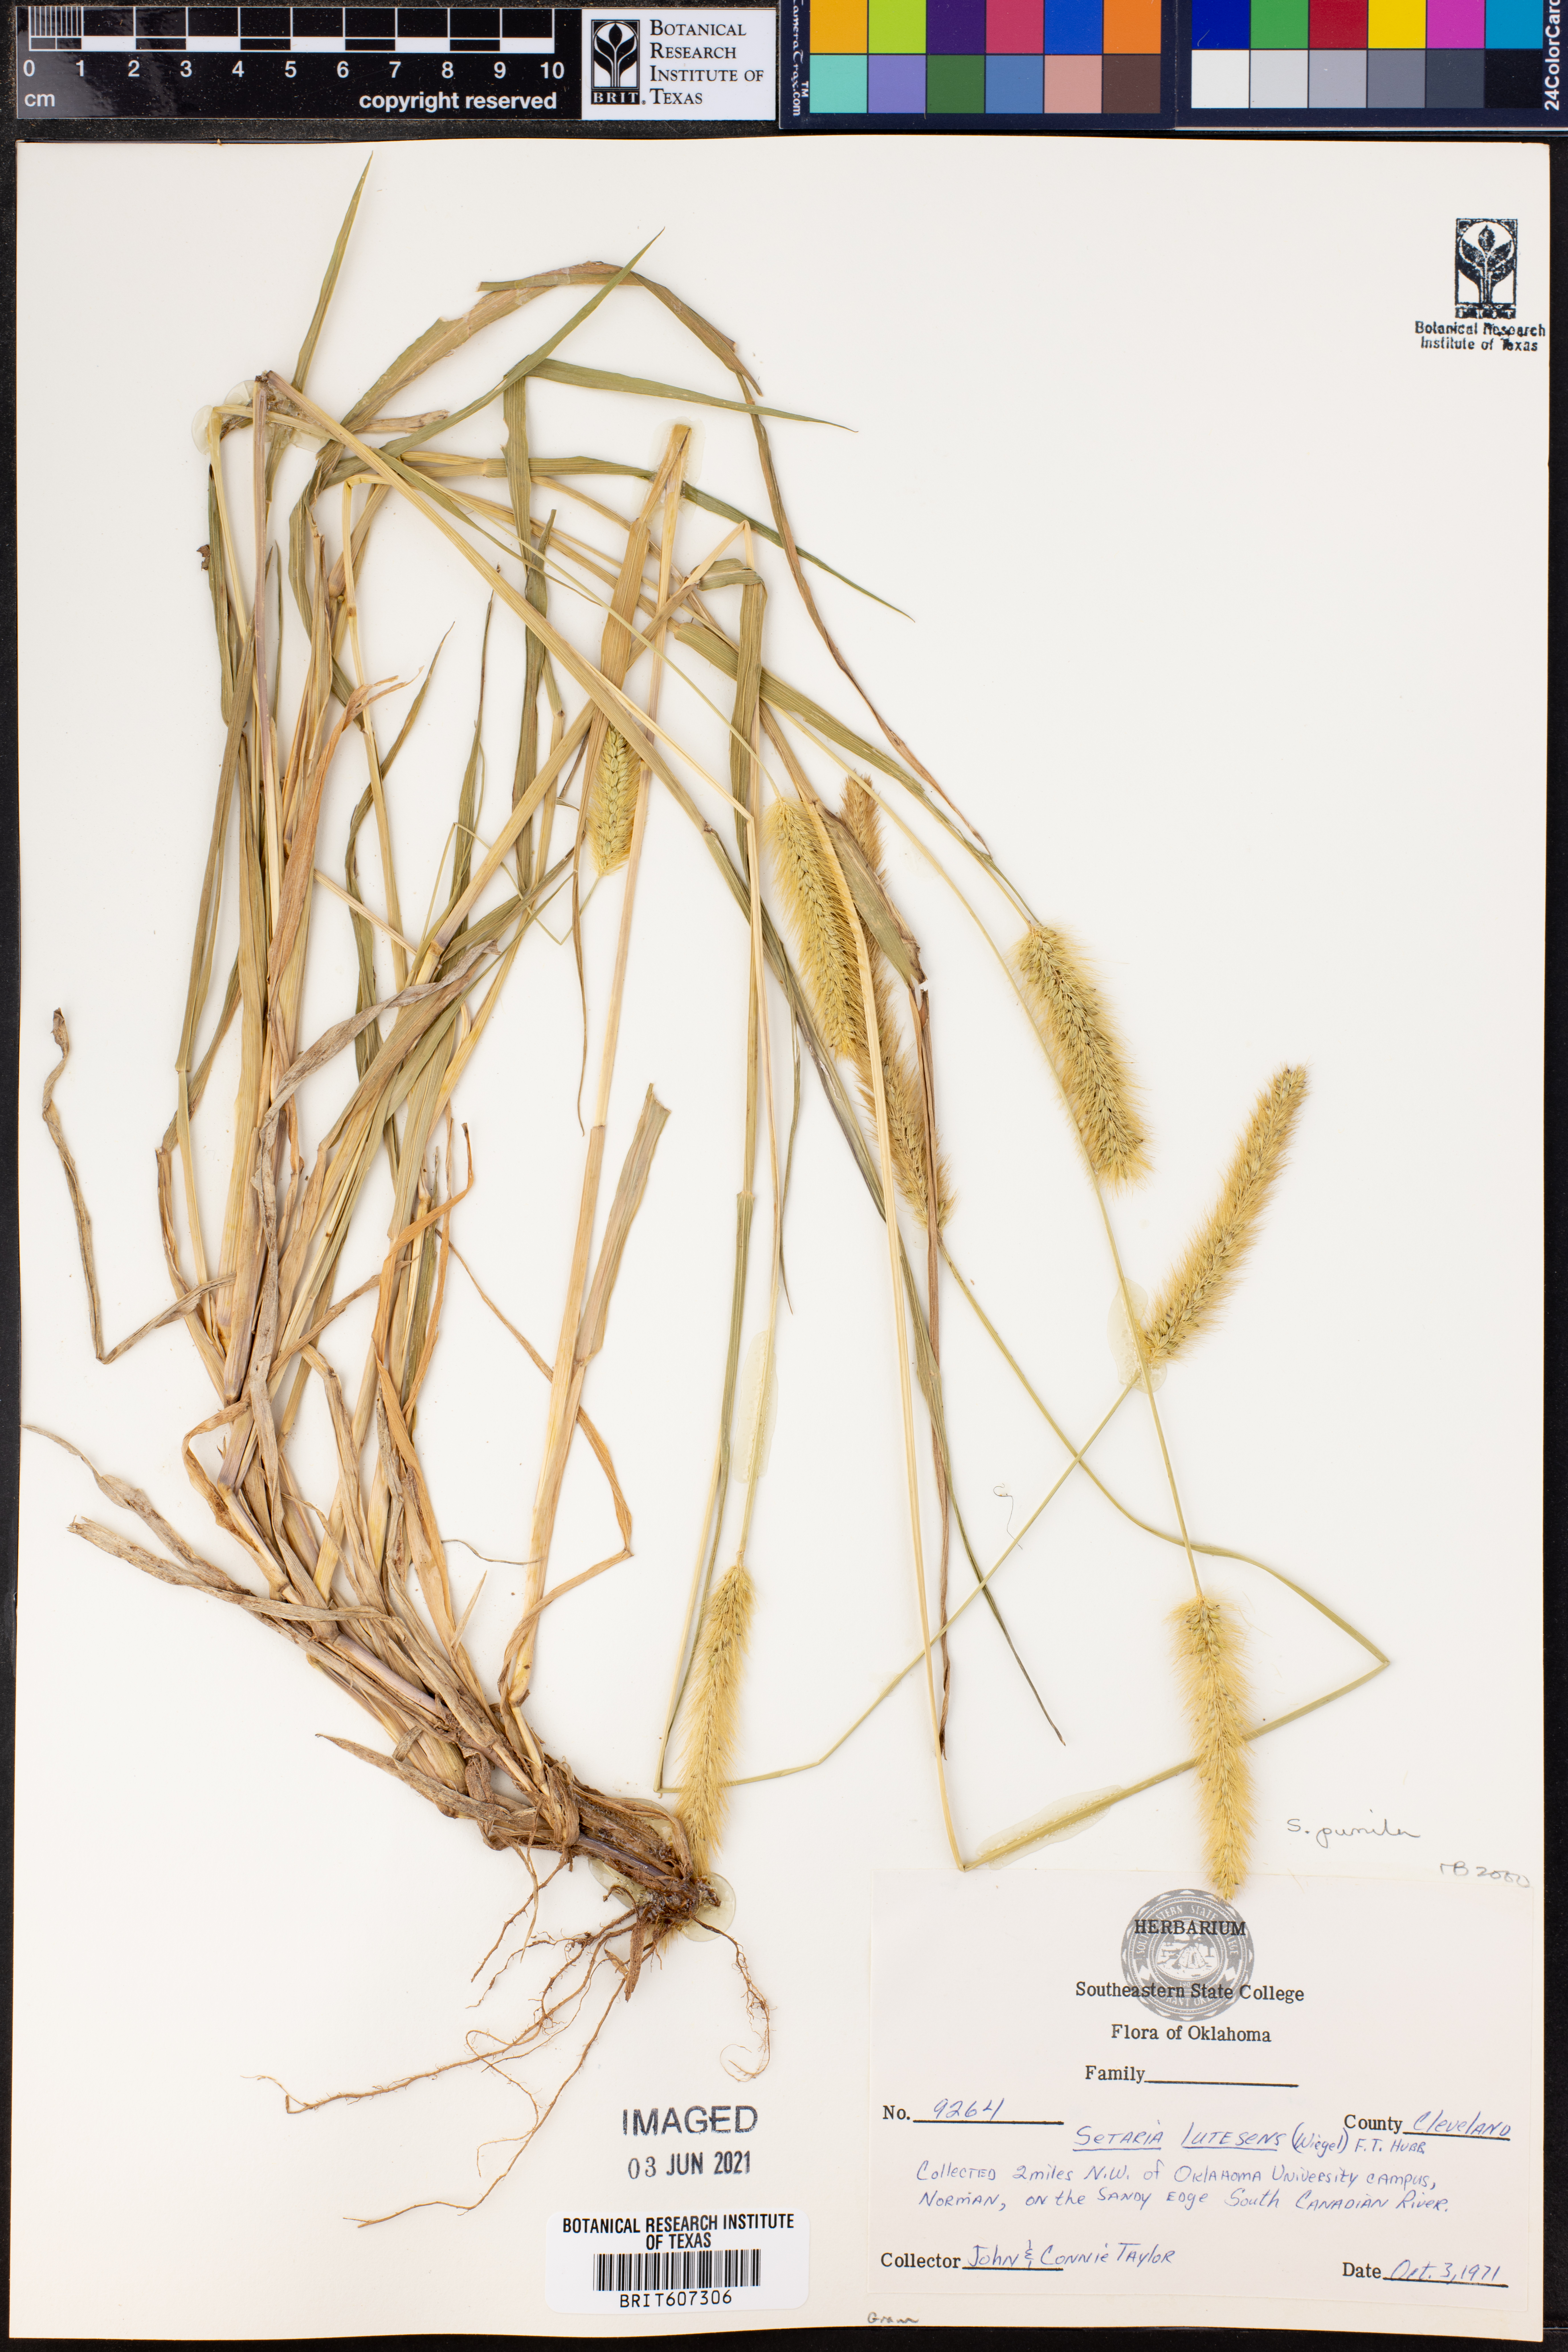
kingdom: Plantae
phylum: Tracheophyta
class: Liliopsida
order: Poales
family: Poaceae
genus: Setaria
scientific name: Setaria pumila
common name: Yellow bristle-grass
